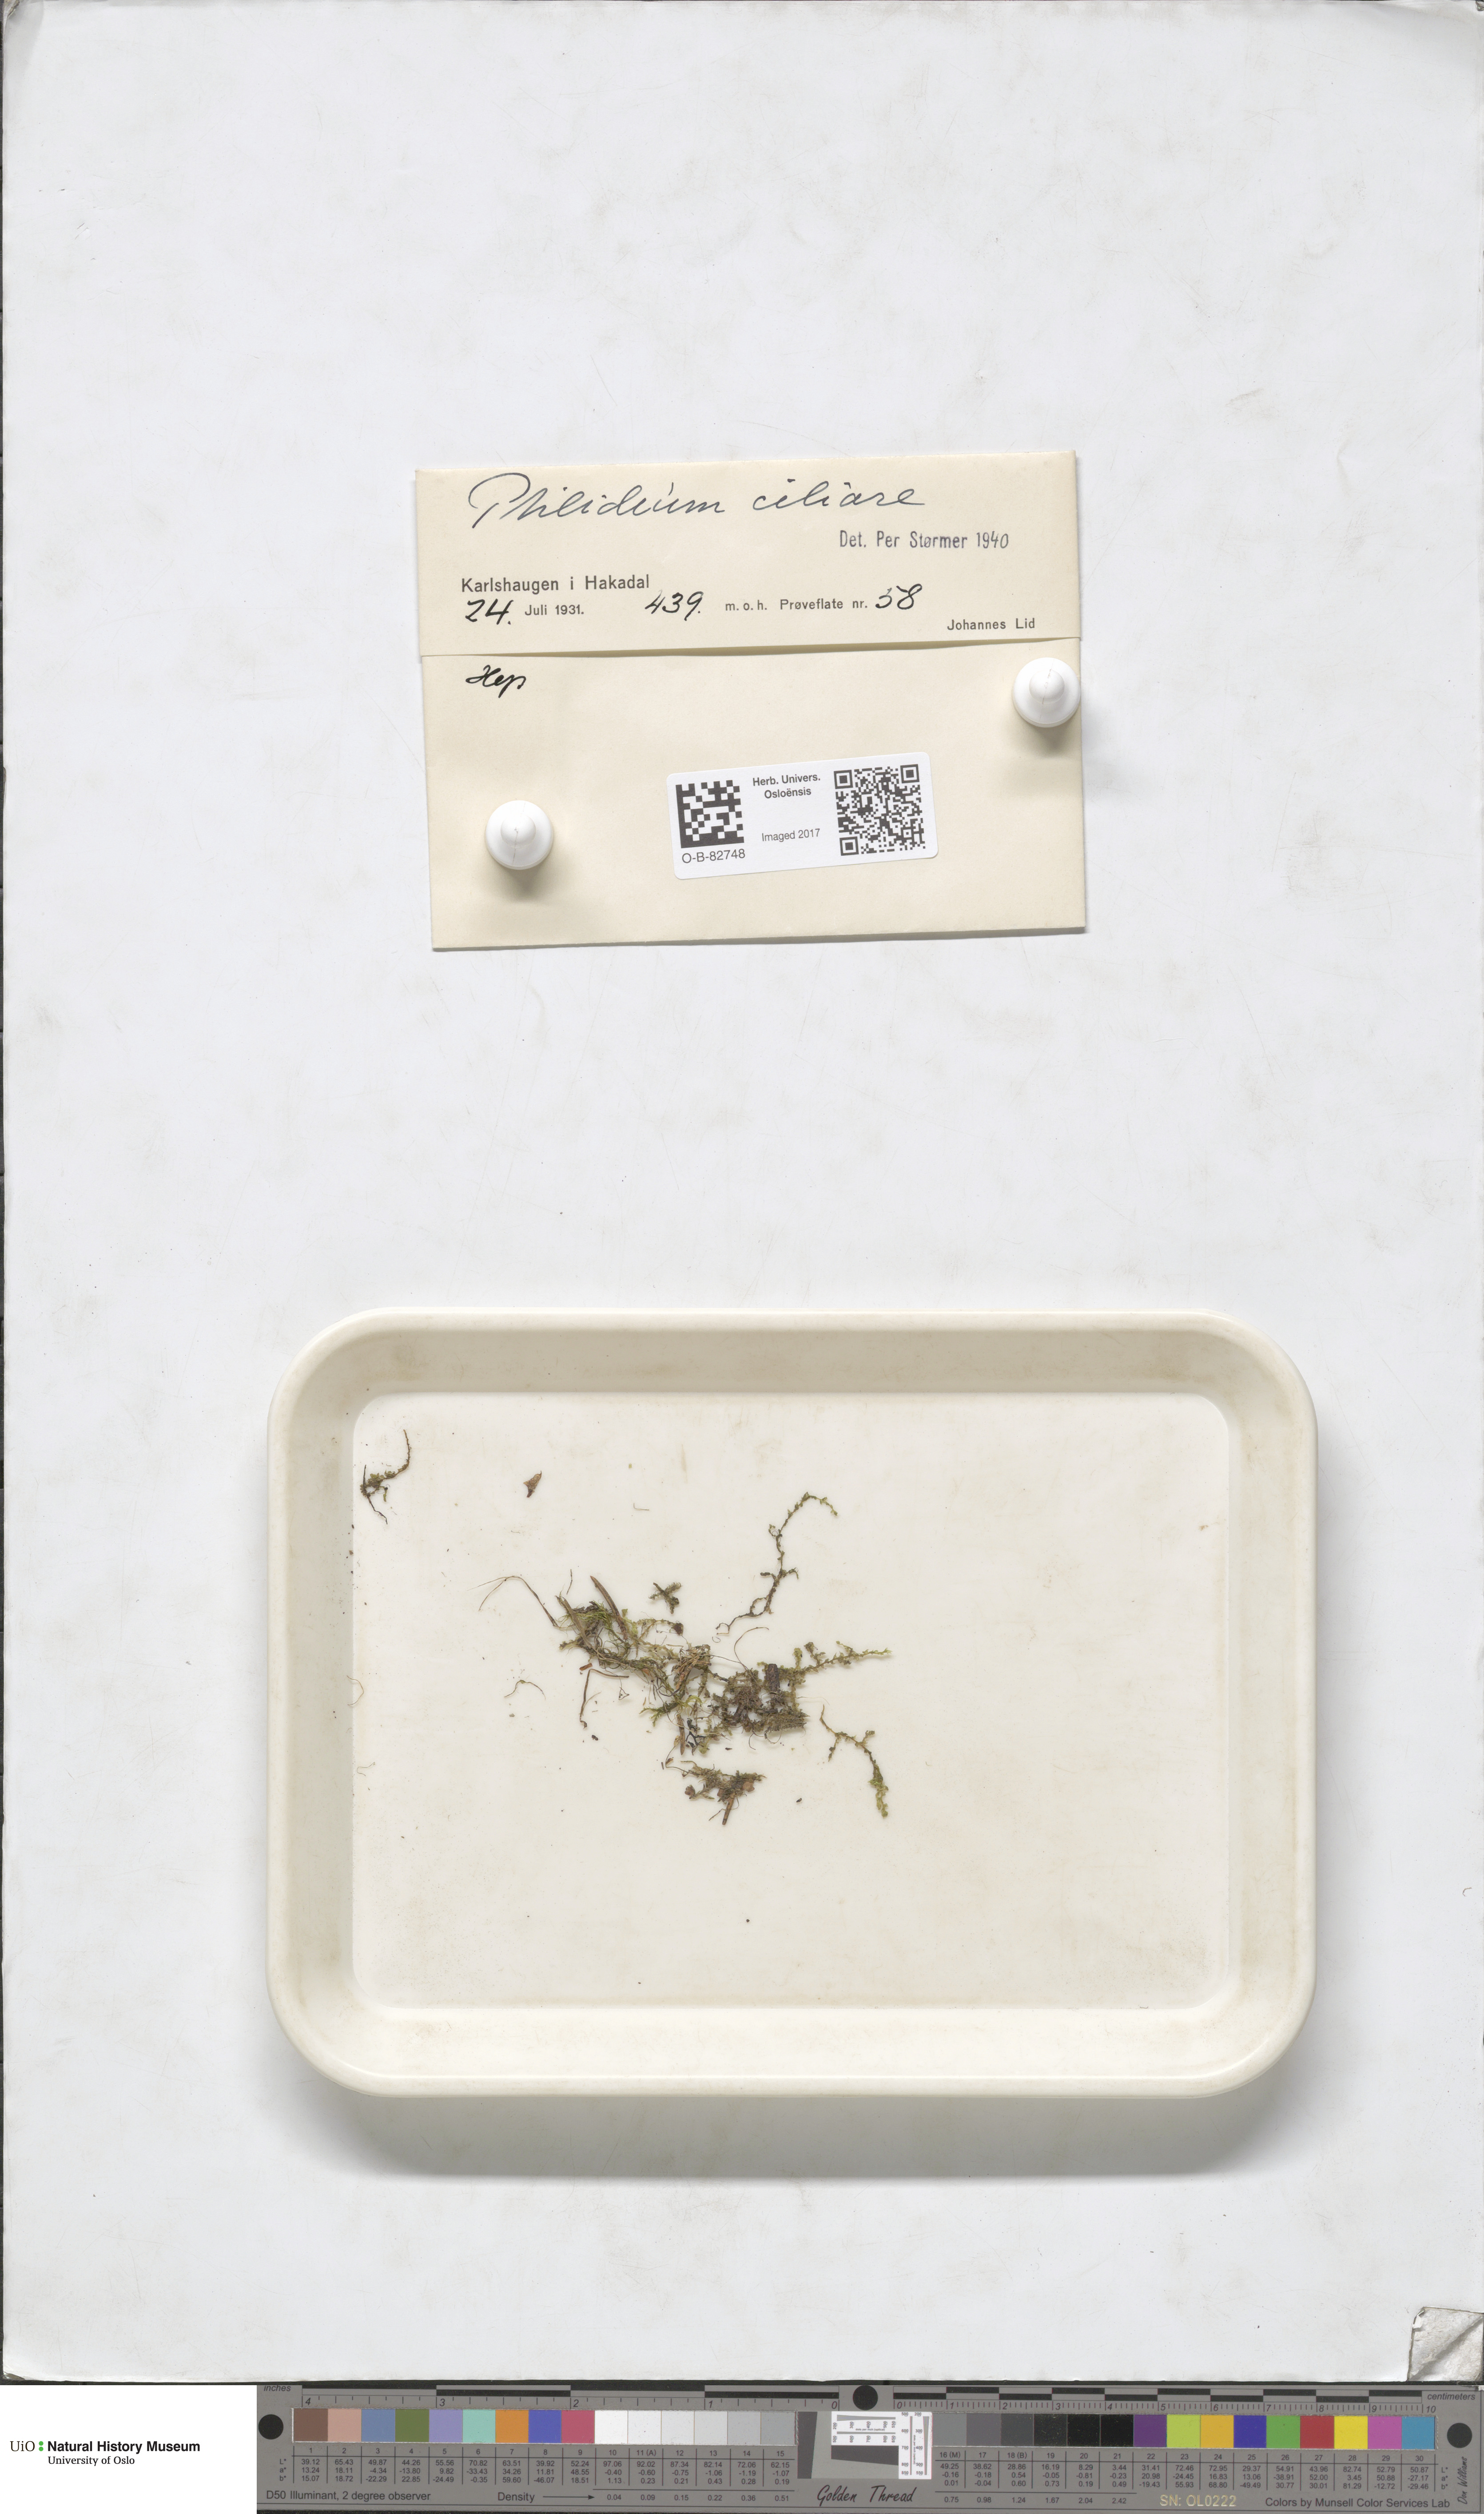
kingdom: Plantae
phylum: Marchantiophyta
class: Jungermanniopsida
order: Ptilidiales
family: Ptilidiaceae
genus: Ptilidium
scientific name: Ptilidium ciliare
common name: Ciliate fringewort
